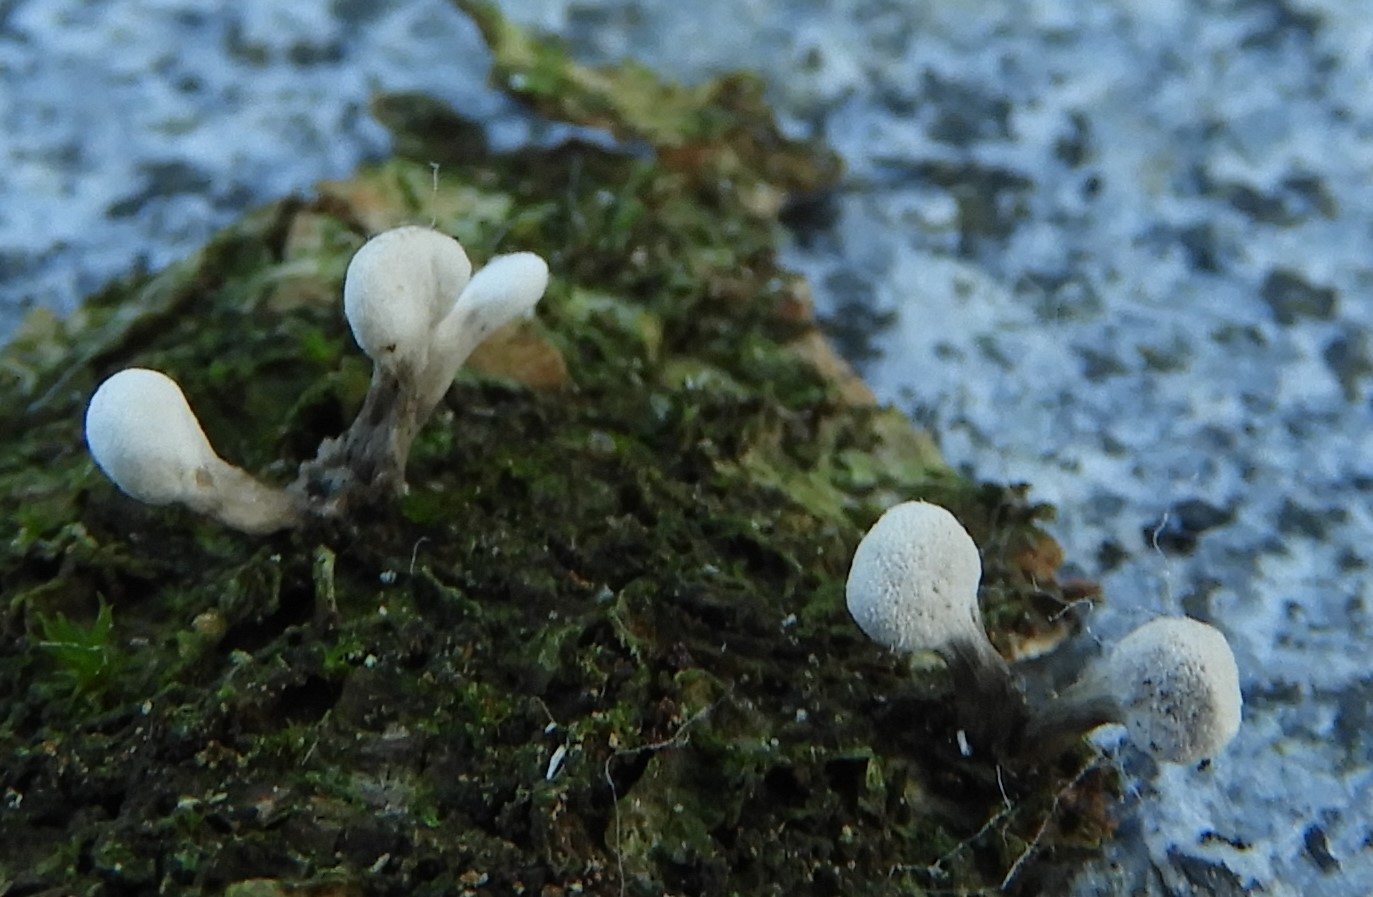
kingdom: Fungi
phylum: Basidiomycota
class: Atractiellomycetes
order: Atractiellales
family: Phleogenaceae
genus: Phleogena
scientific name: Phleogena faginea
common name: pudderkølle
